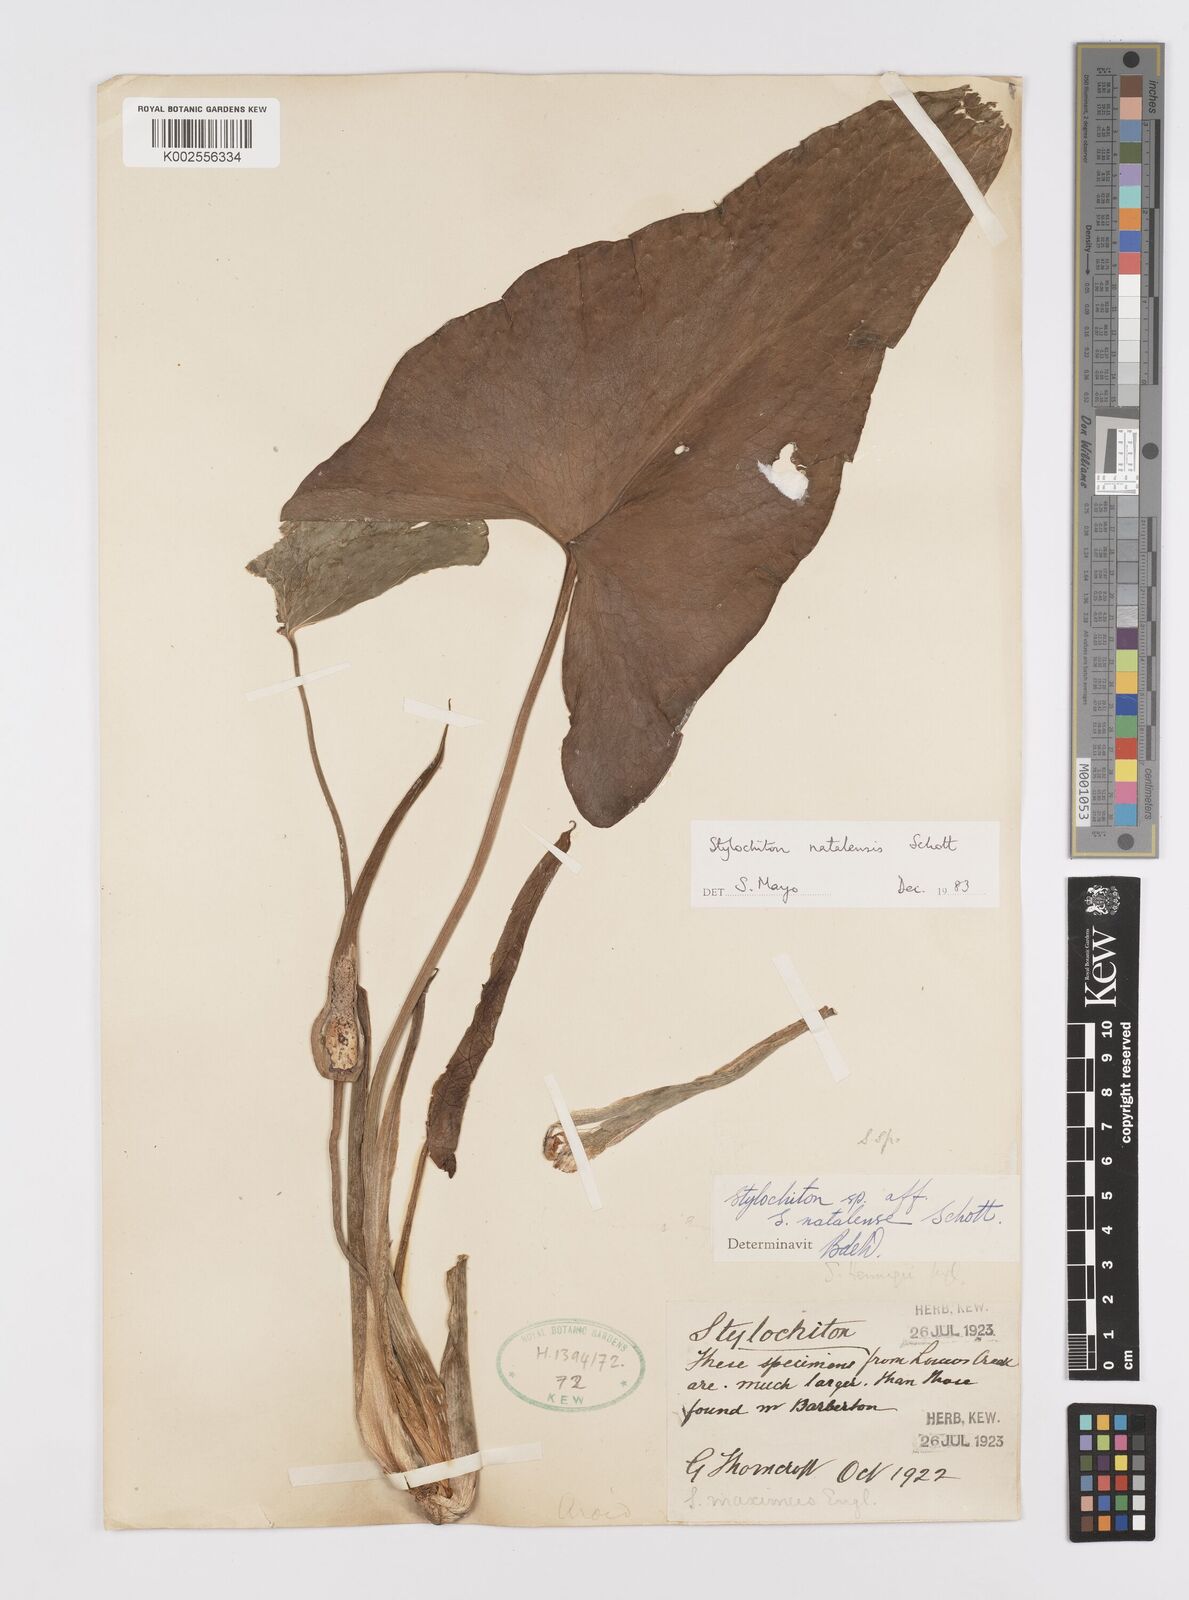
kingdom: Plantae
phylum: Tracheophyta
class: Liliopsida
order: Alismatales
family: Araceae
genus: Stylochaeton
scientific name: Stylochaeton natalense
